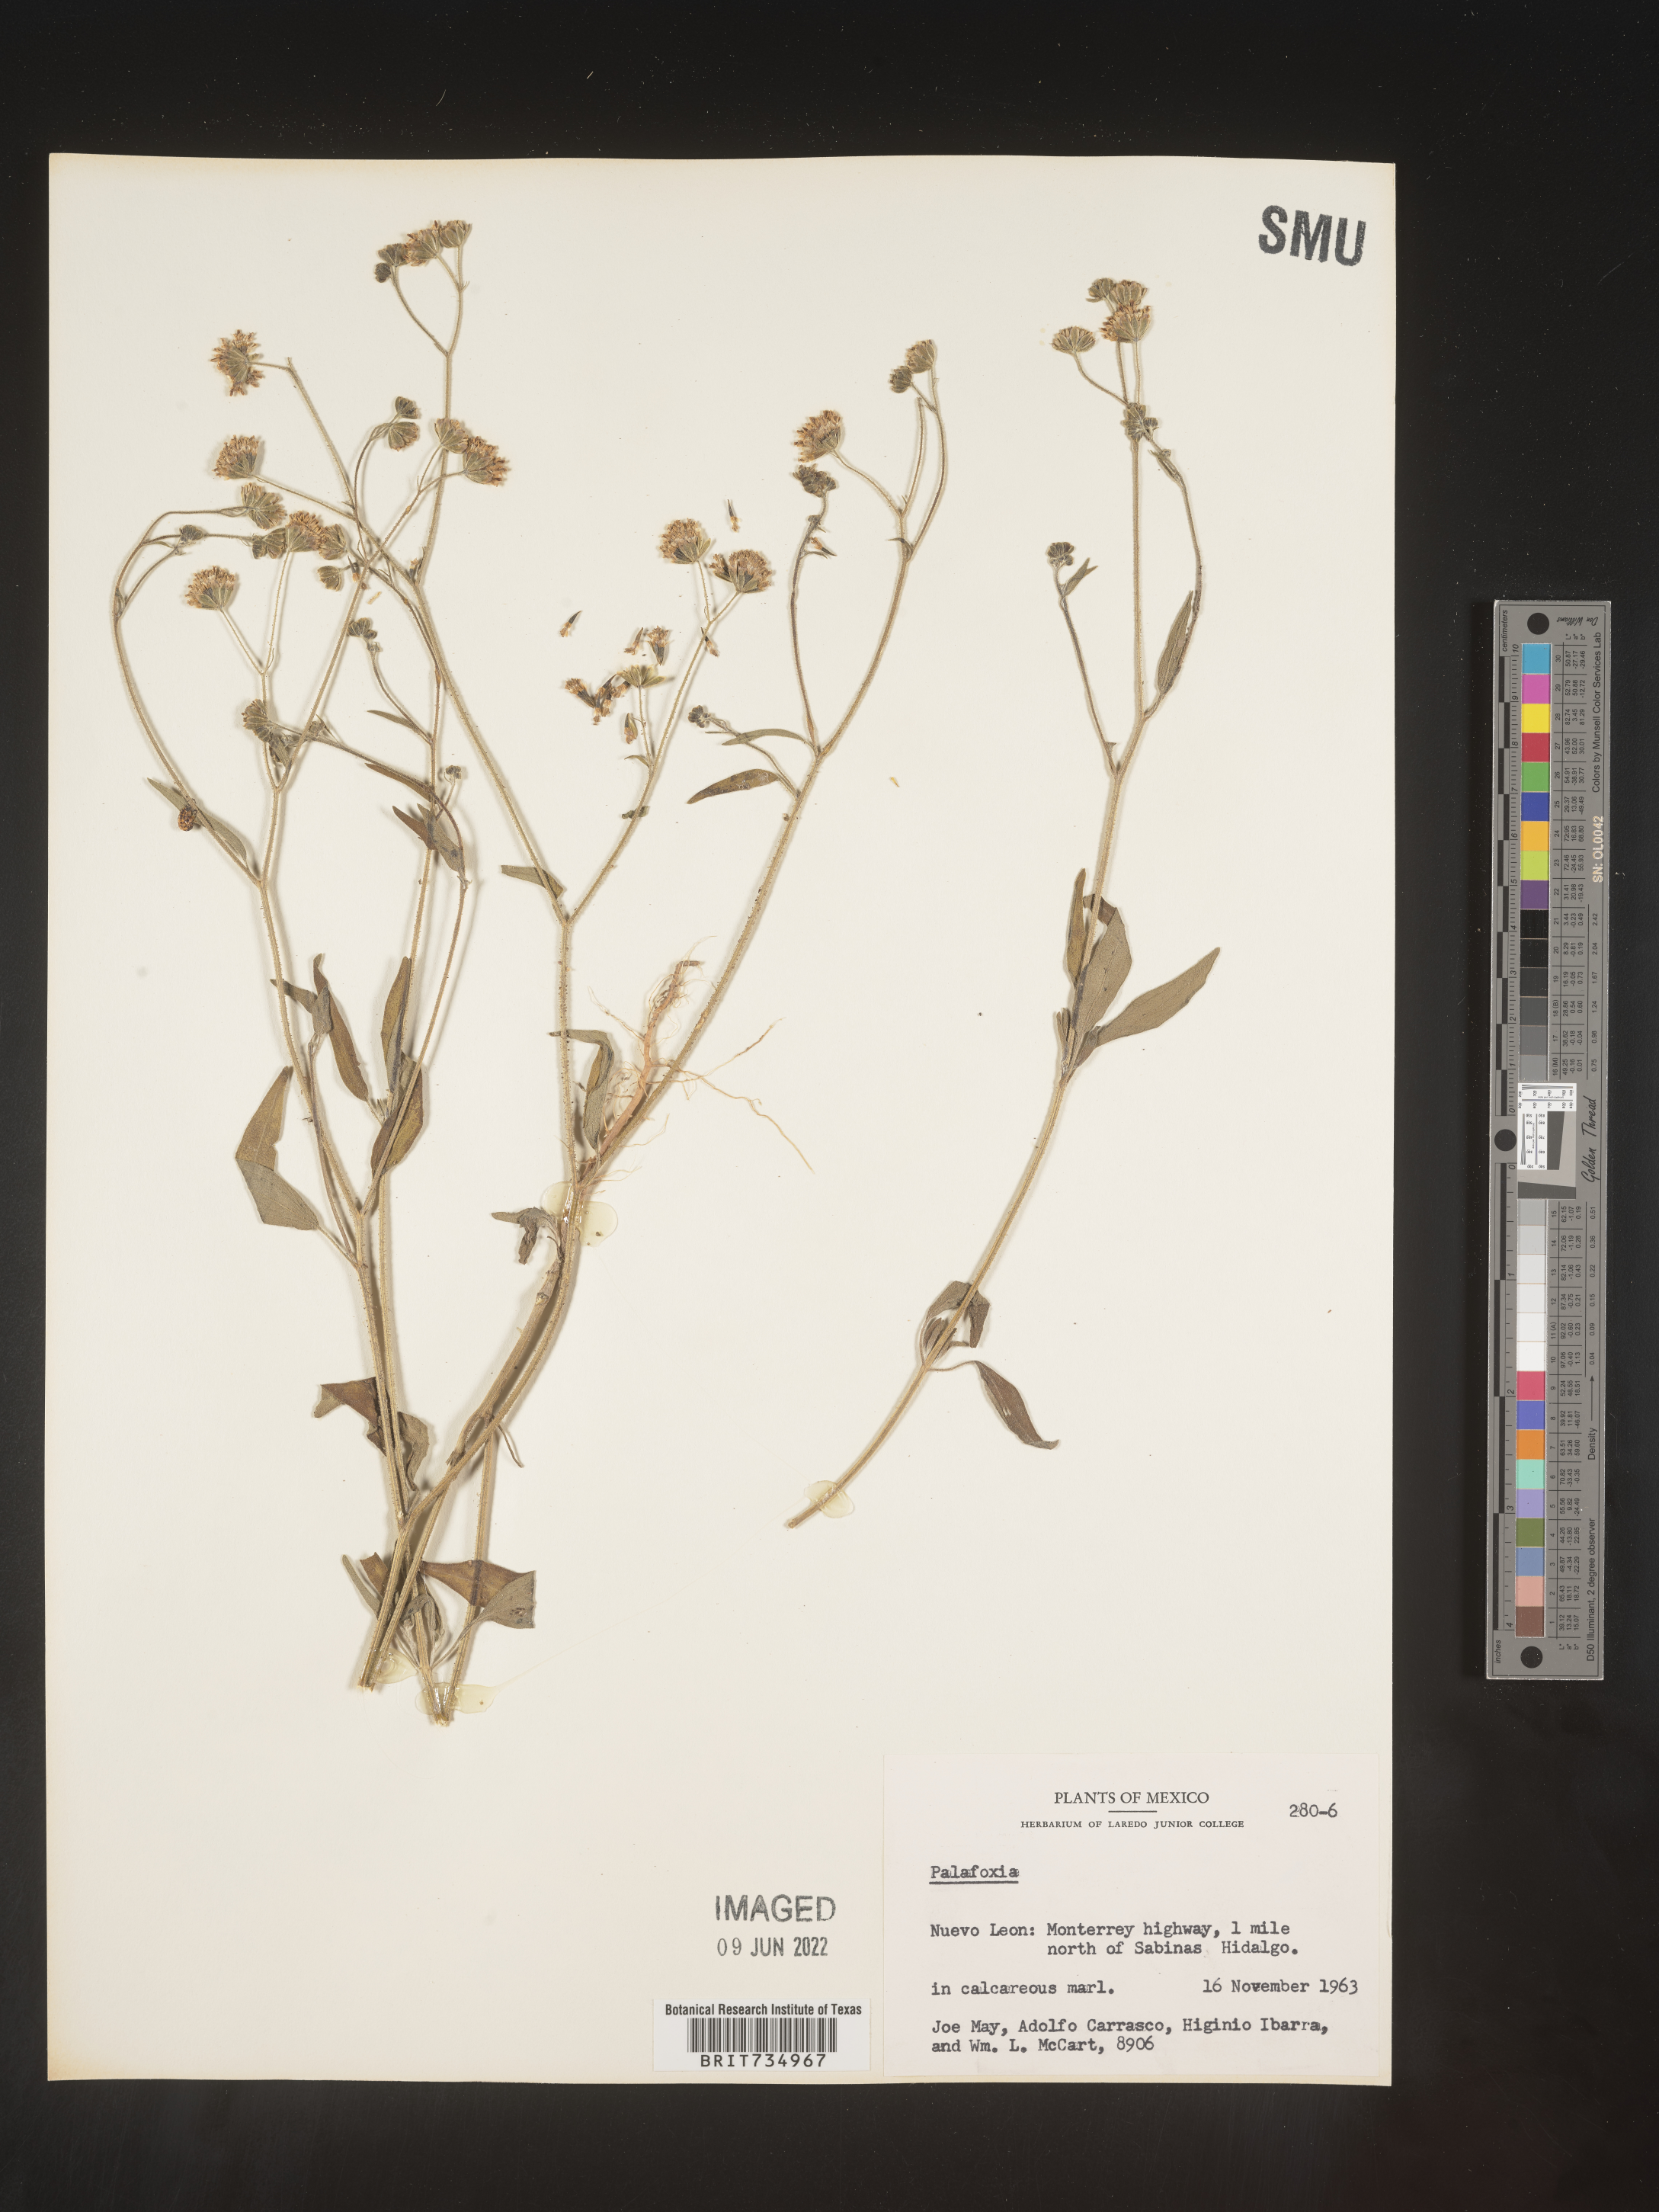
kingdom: Plantae
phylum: Tracheophyta
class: Magnoliopsida
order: Asterales
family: Asteraceae
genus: Palafoxia
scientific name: Palafoxia
